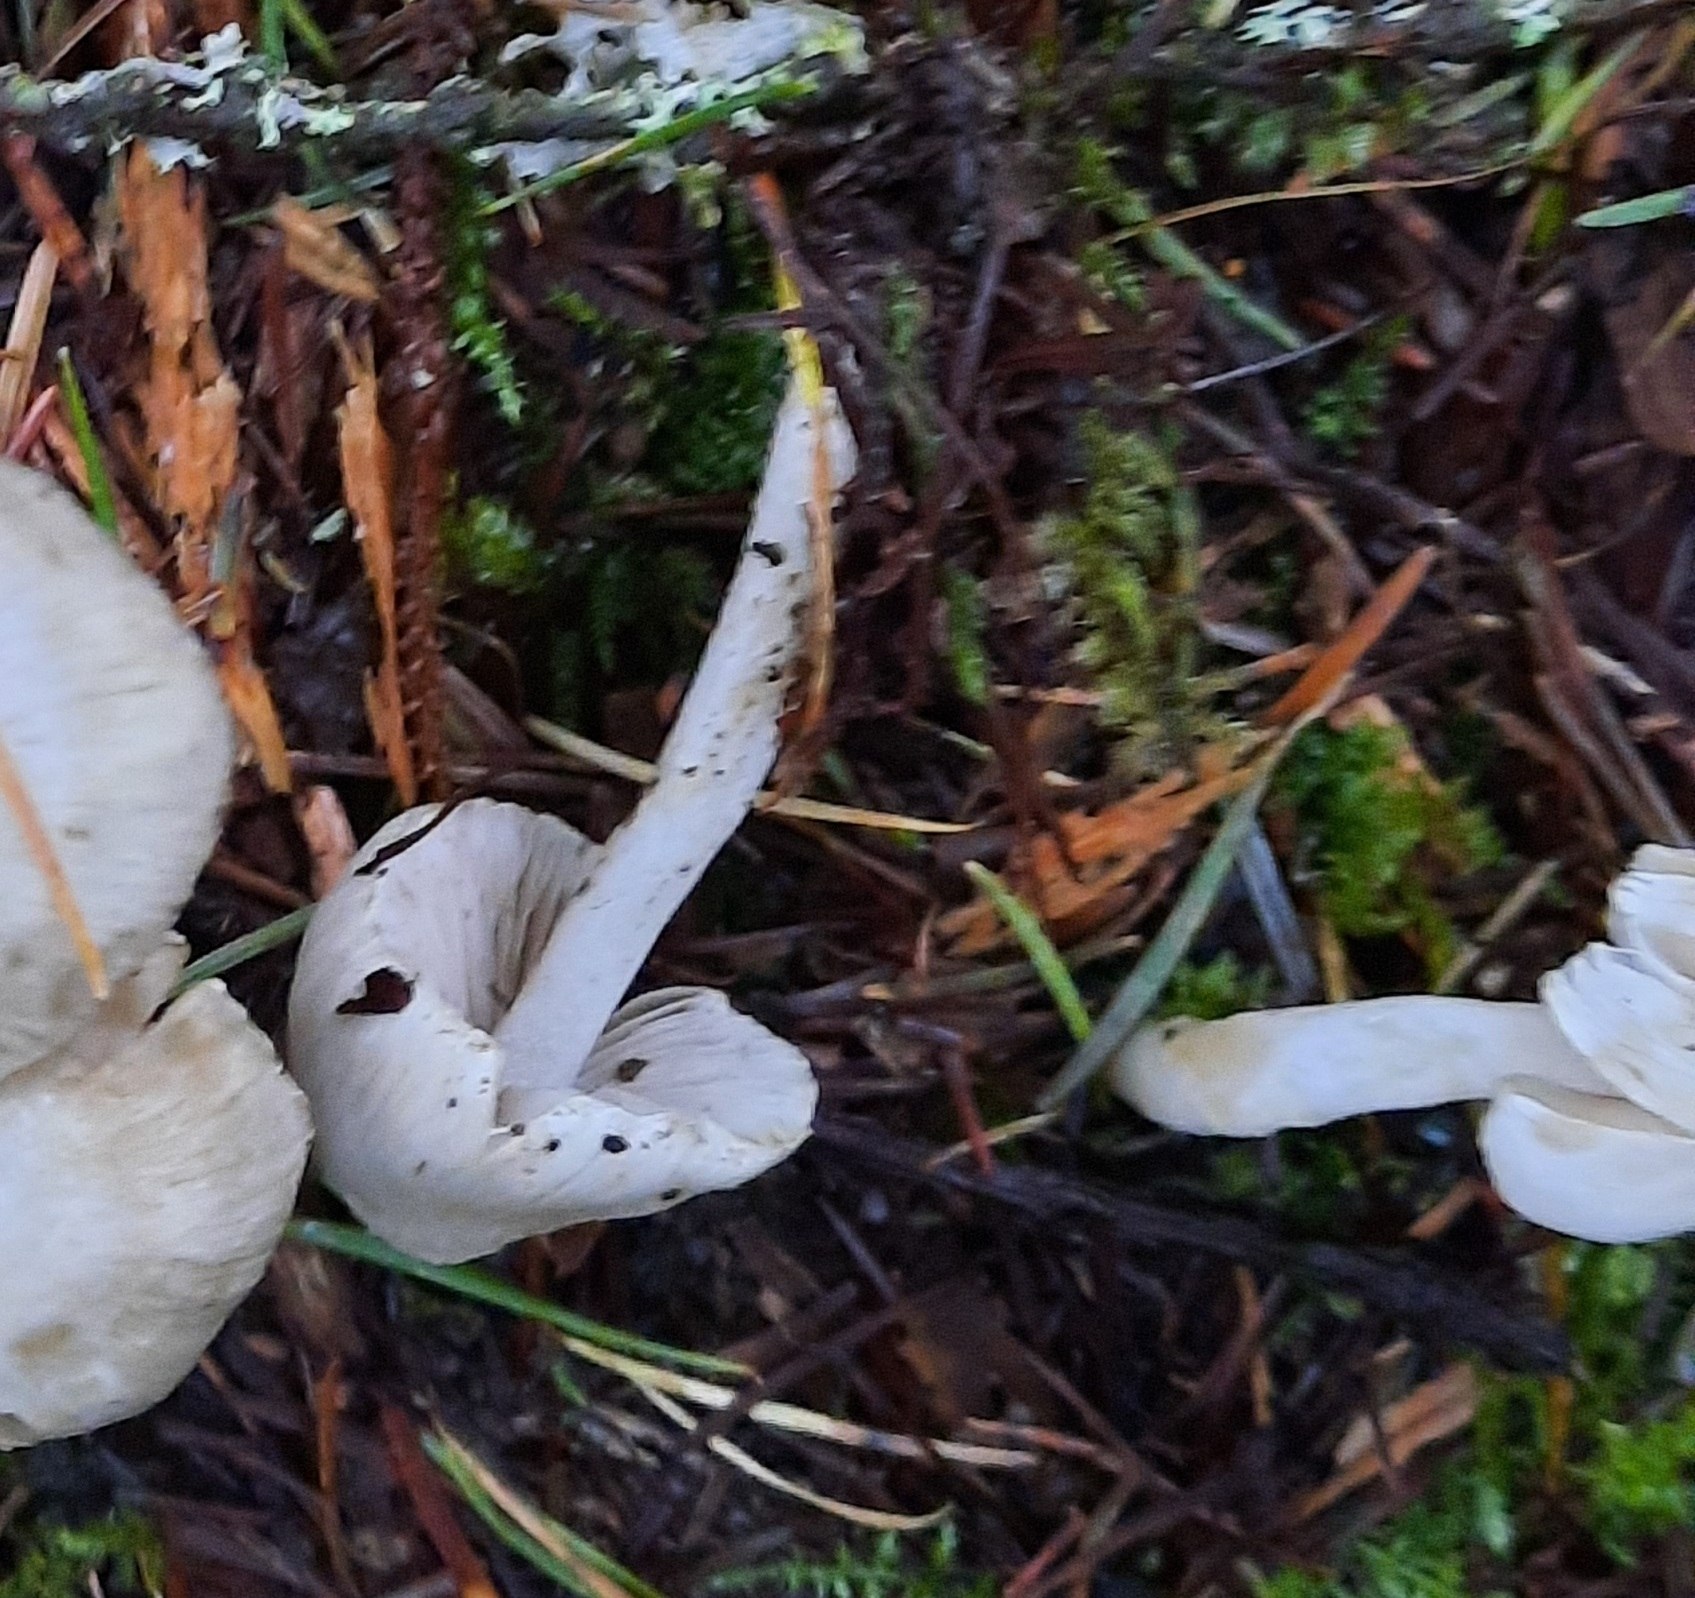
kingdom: Fungi
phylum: Basidiomycota
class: Agaricomycetes
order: Agaricales
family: Inocybaceae
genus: Inocybe
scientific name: Inocybe
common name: almindelig trævlhat
